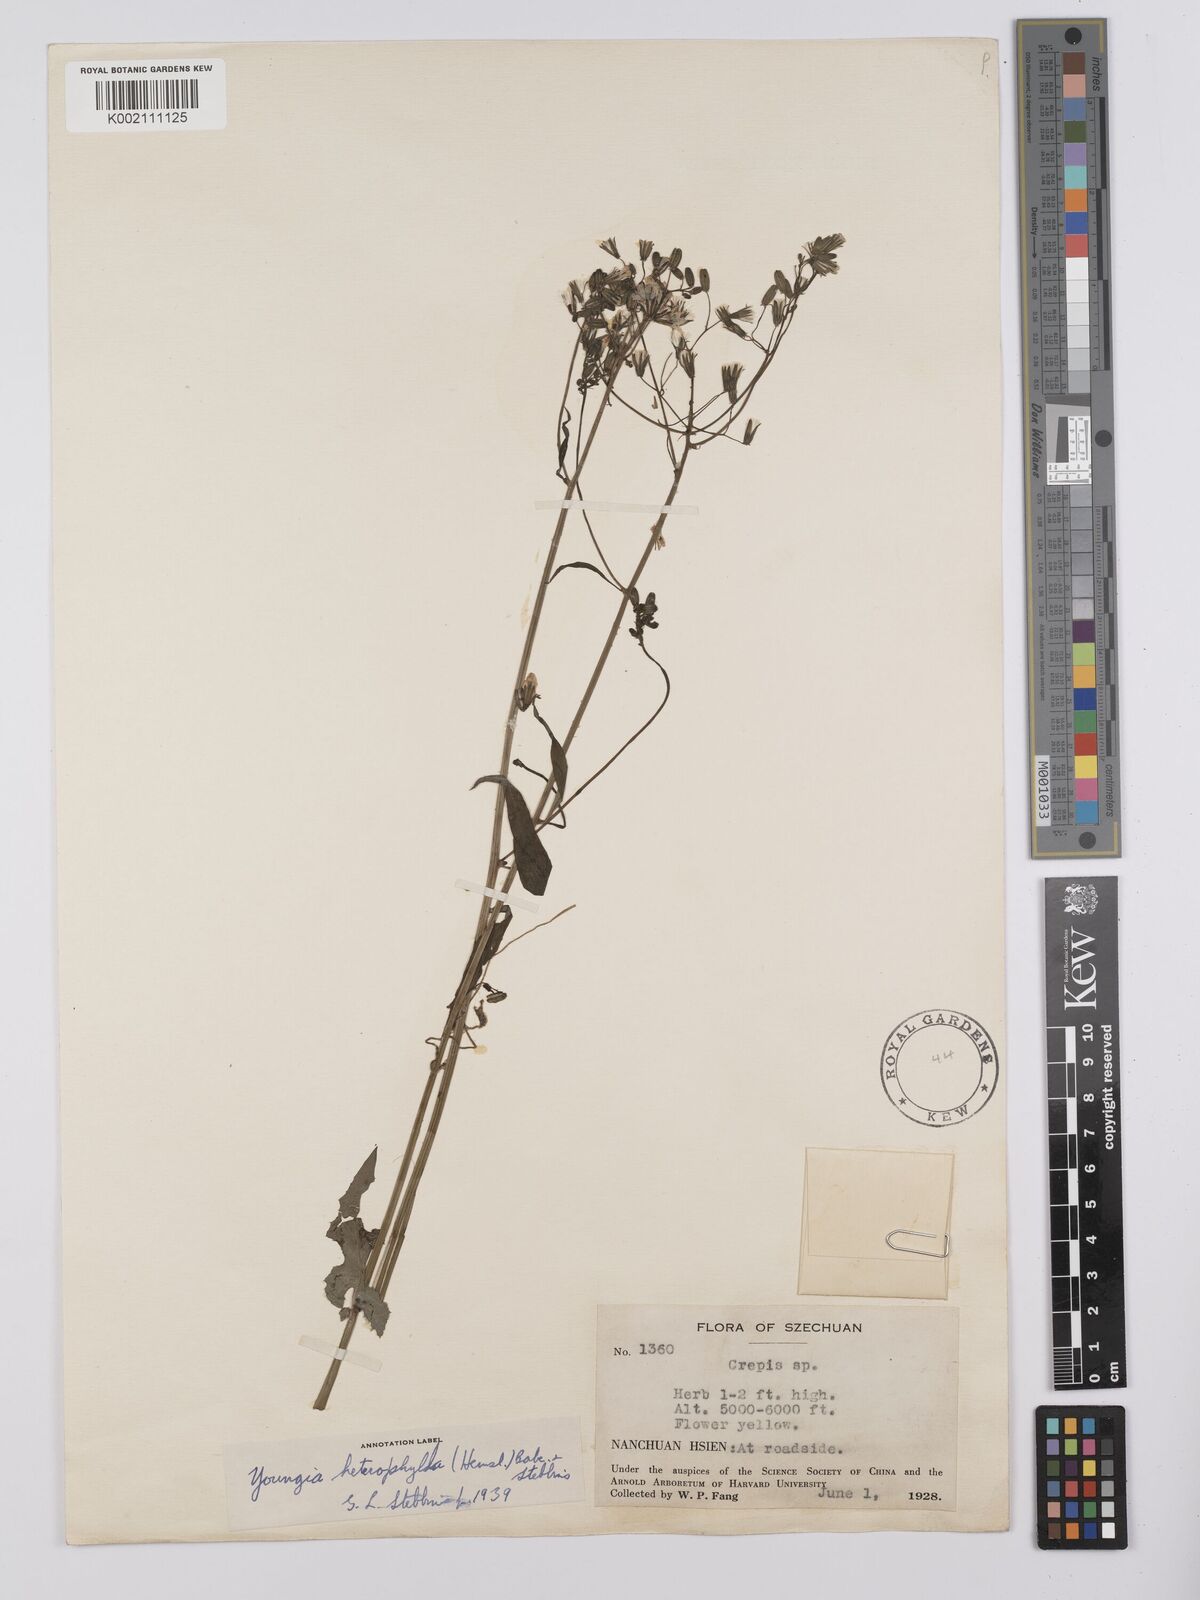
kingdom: Plantae
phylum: Tracheophyta
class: Magnoliopsida
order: Asterales
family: Asteraceae
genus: Youngia
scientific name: Youngia heterophylla
